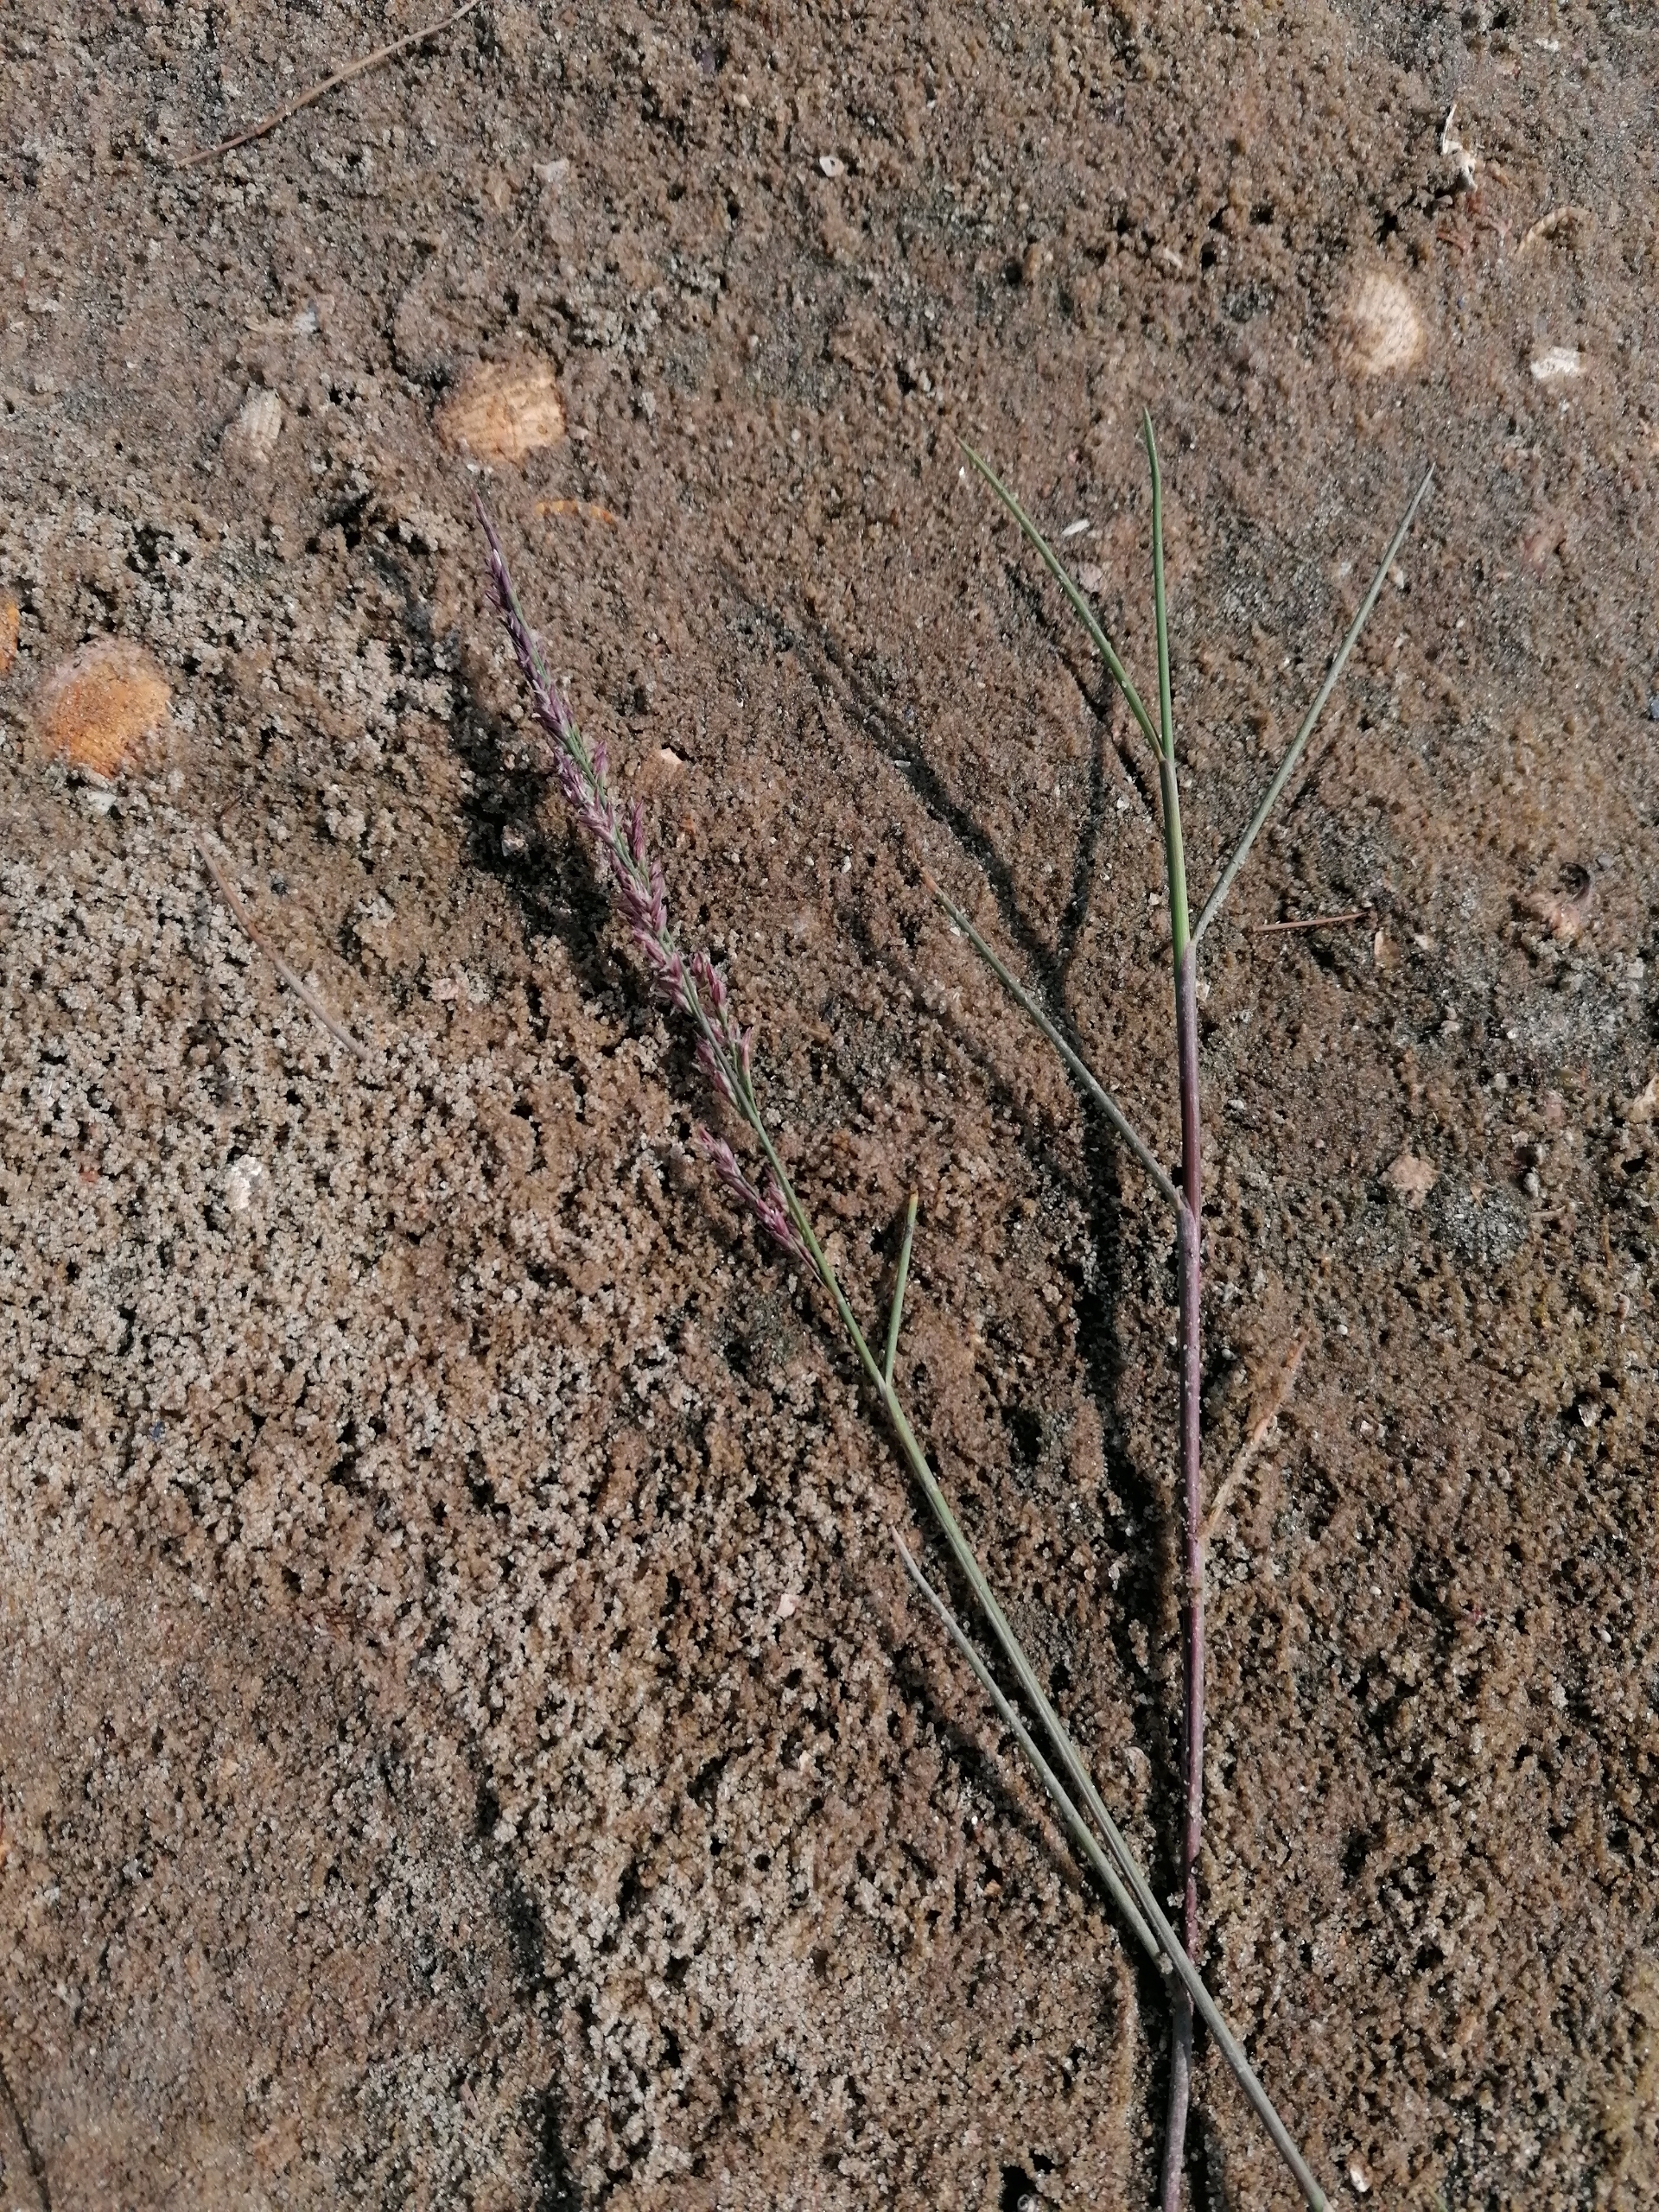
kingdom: Plantae
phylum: Tracheophyta
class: Liliopsida
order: Poales
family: Poaceae
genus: Puccinellia
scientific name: Puccinellia maritima
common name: Strand-annelgræs
